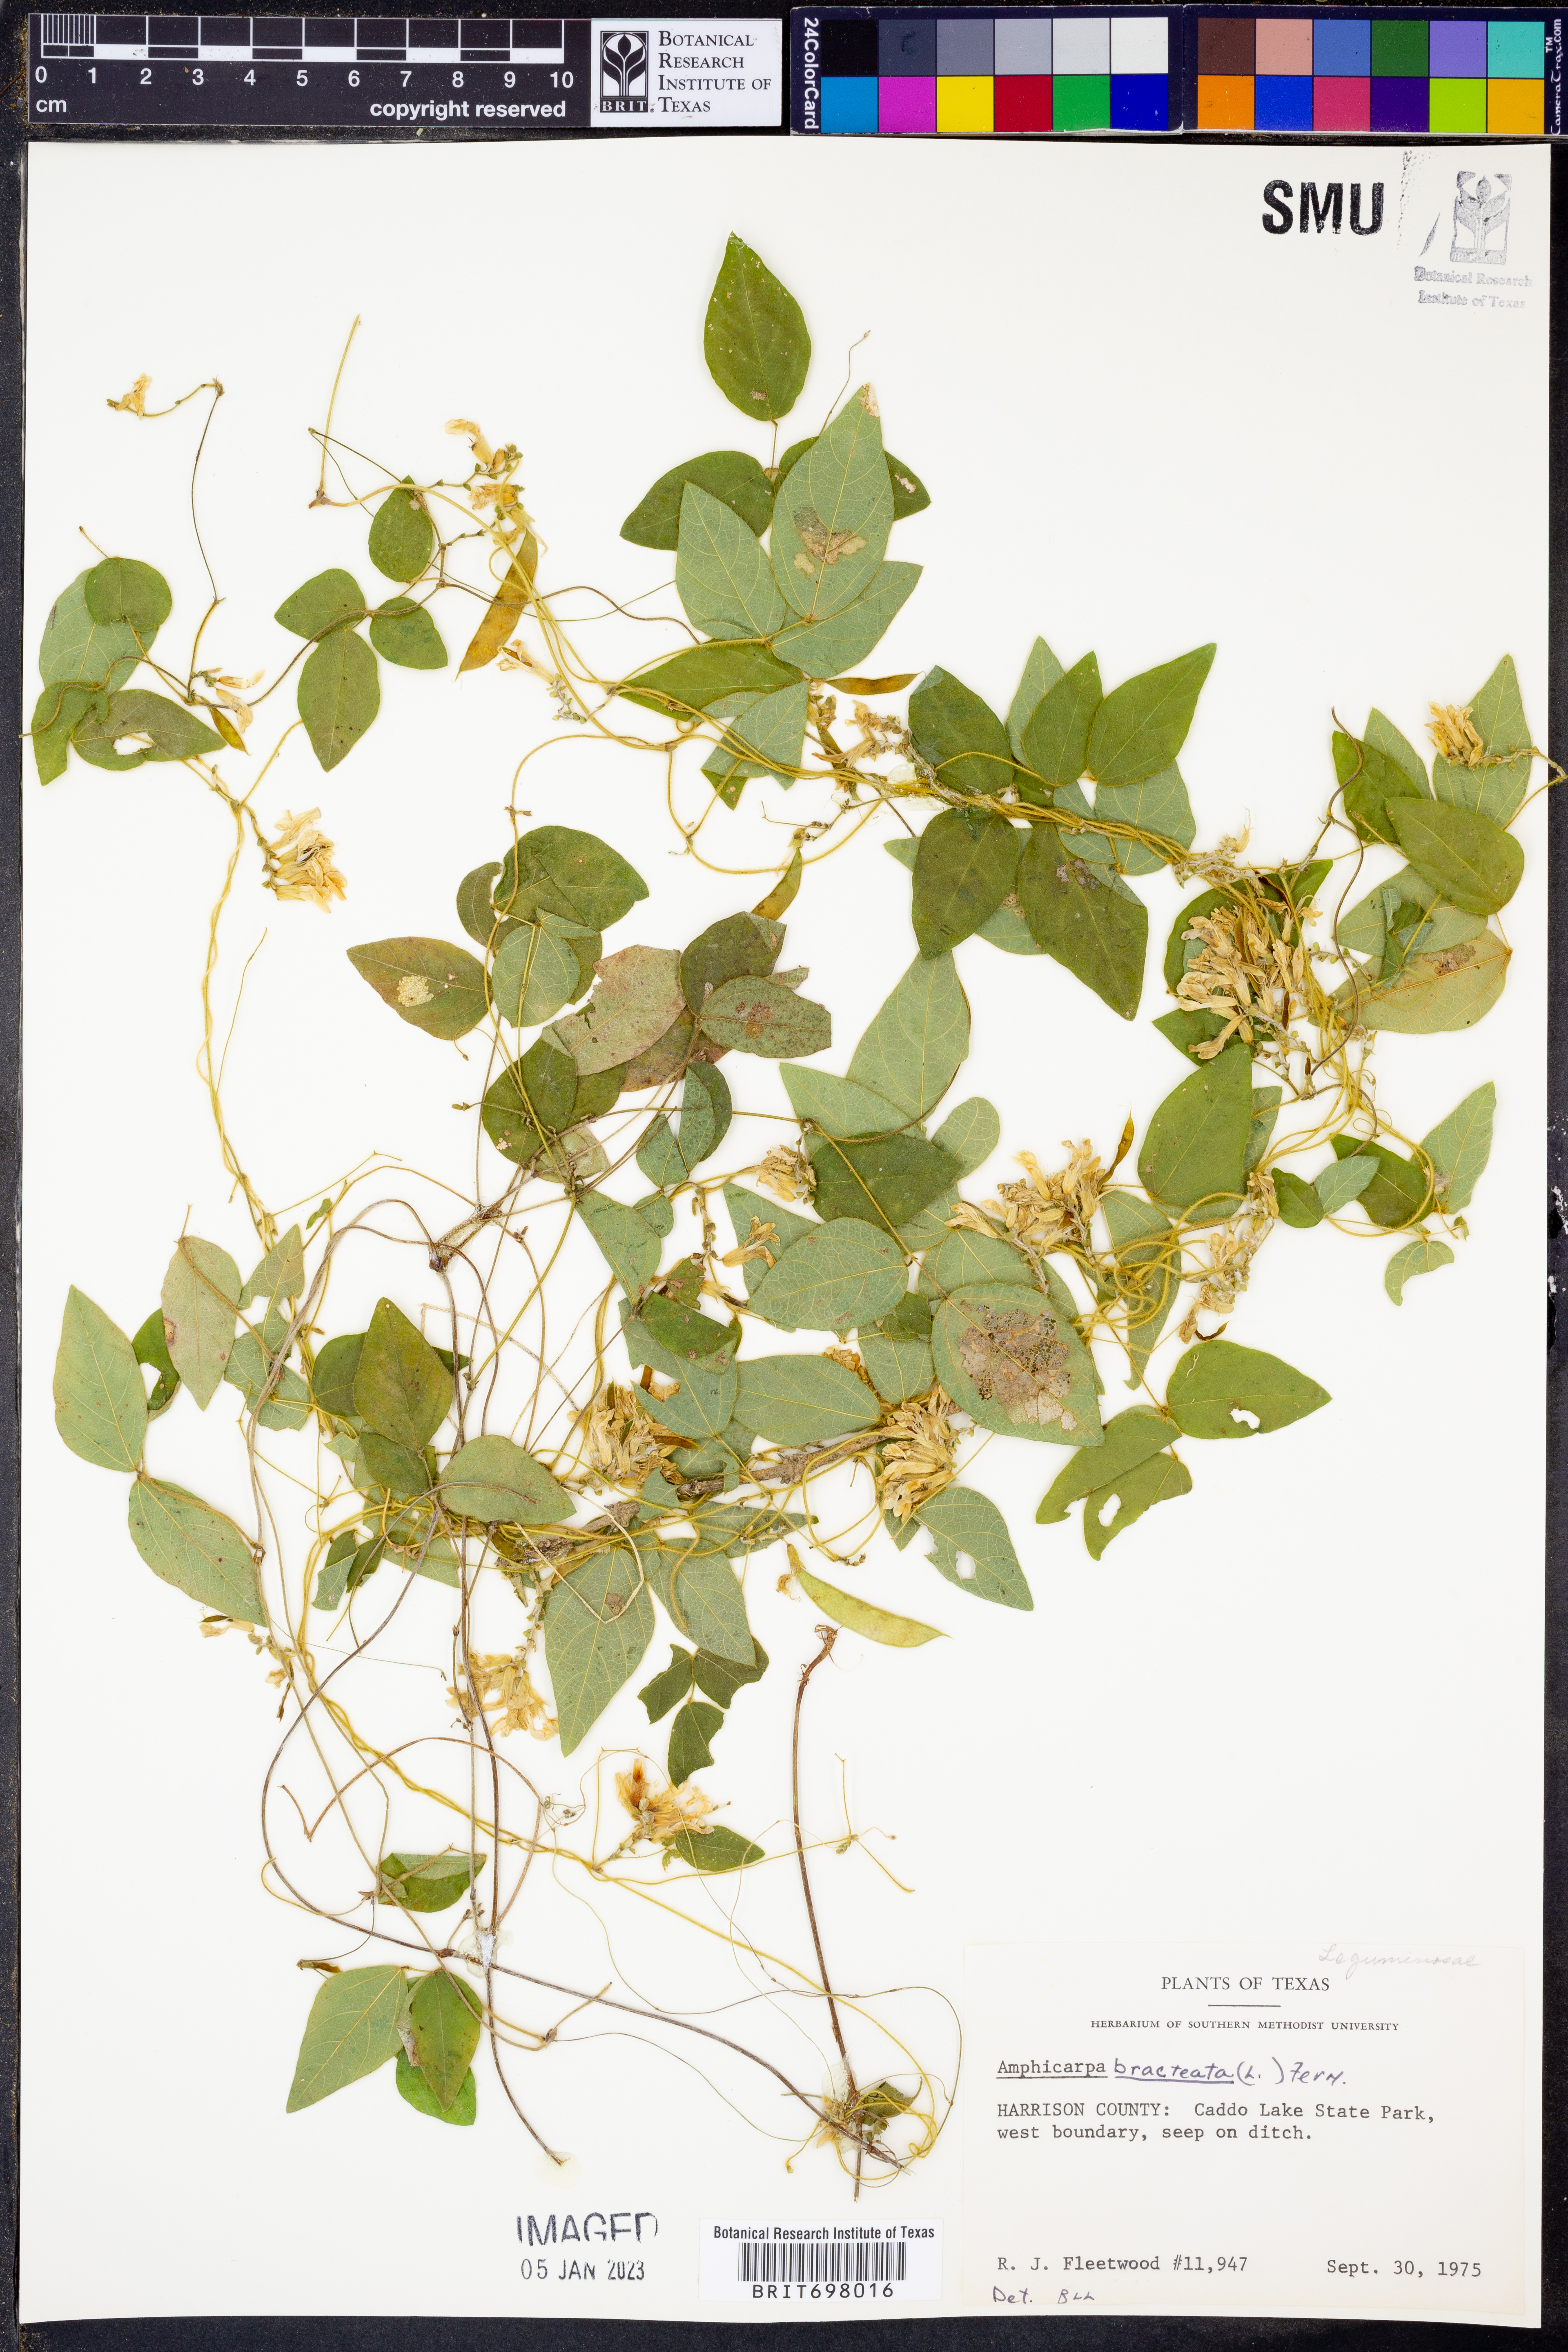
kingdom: Plantae
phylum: Tracheophyta
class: Magnoliopsida
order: Fabales
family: Fabaceae
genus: Amphicarpaea
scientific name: Amphicarpaea bracteata
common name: American hog peanut
